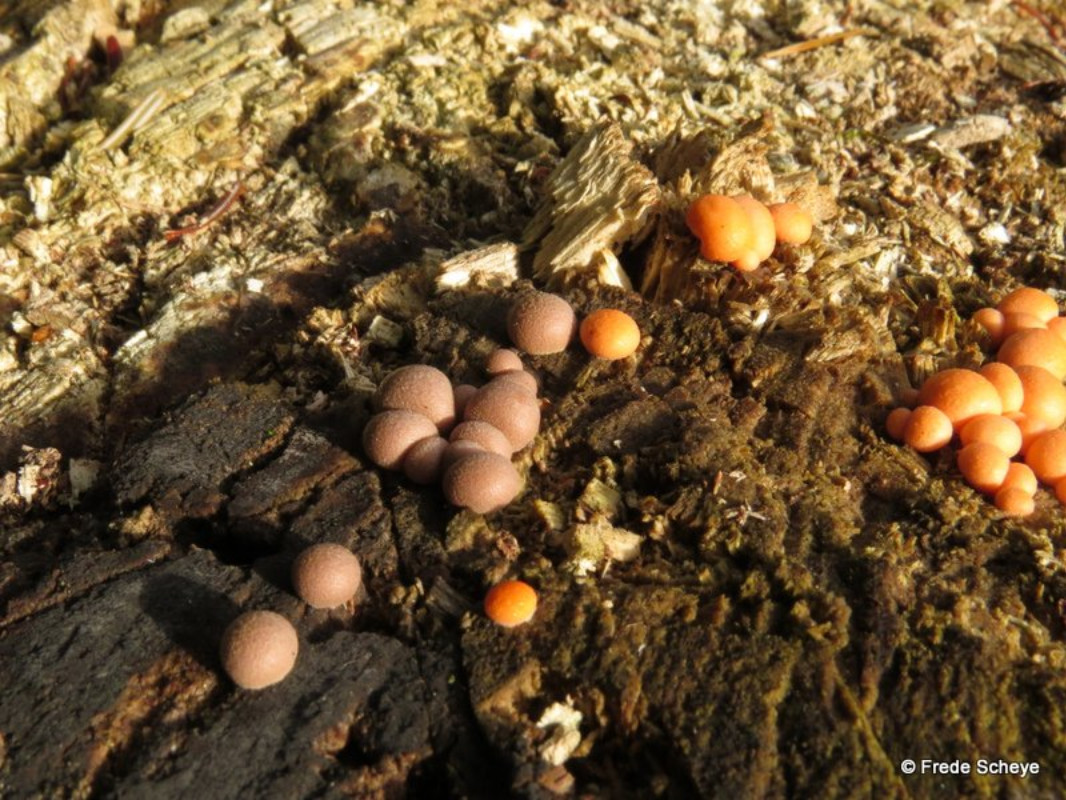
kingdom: Protozoa
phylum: Mycetozoa
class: Myxomycetes
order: Cribrariales
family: Tubiferaceae
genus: Lycogala
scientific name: Lycogala epidendrum
